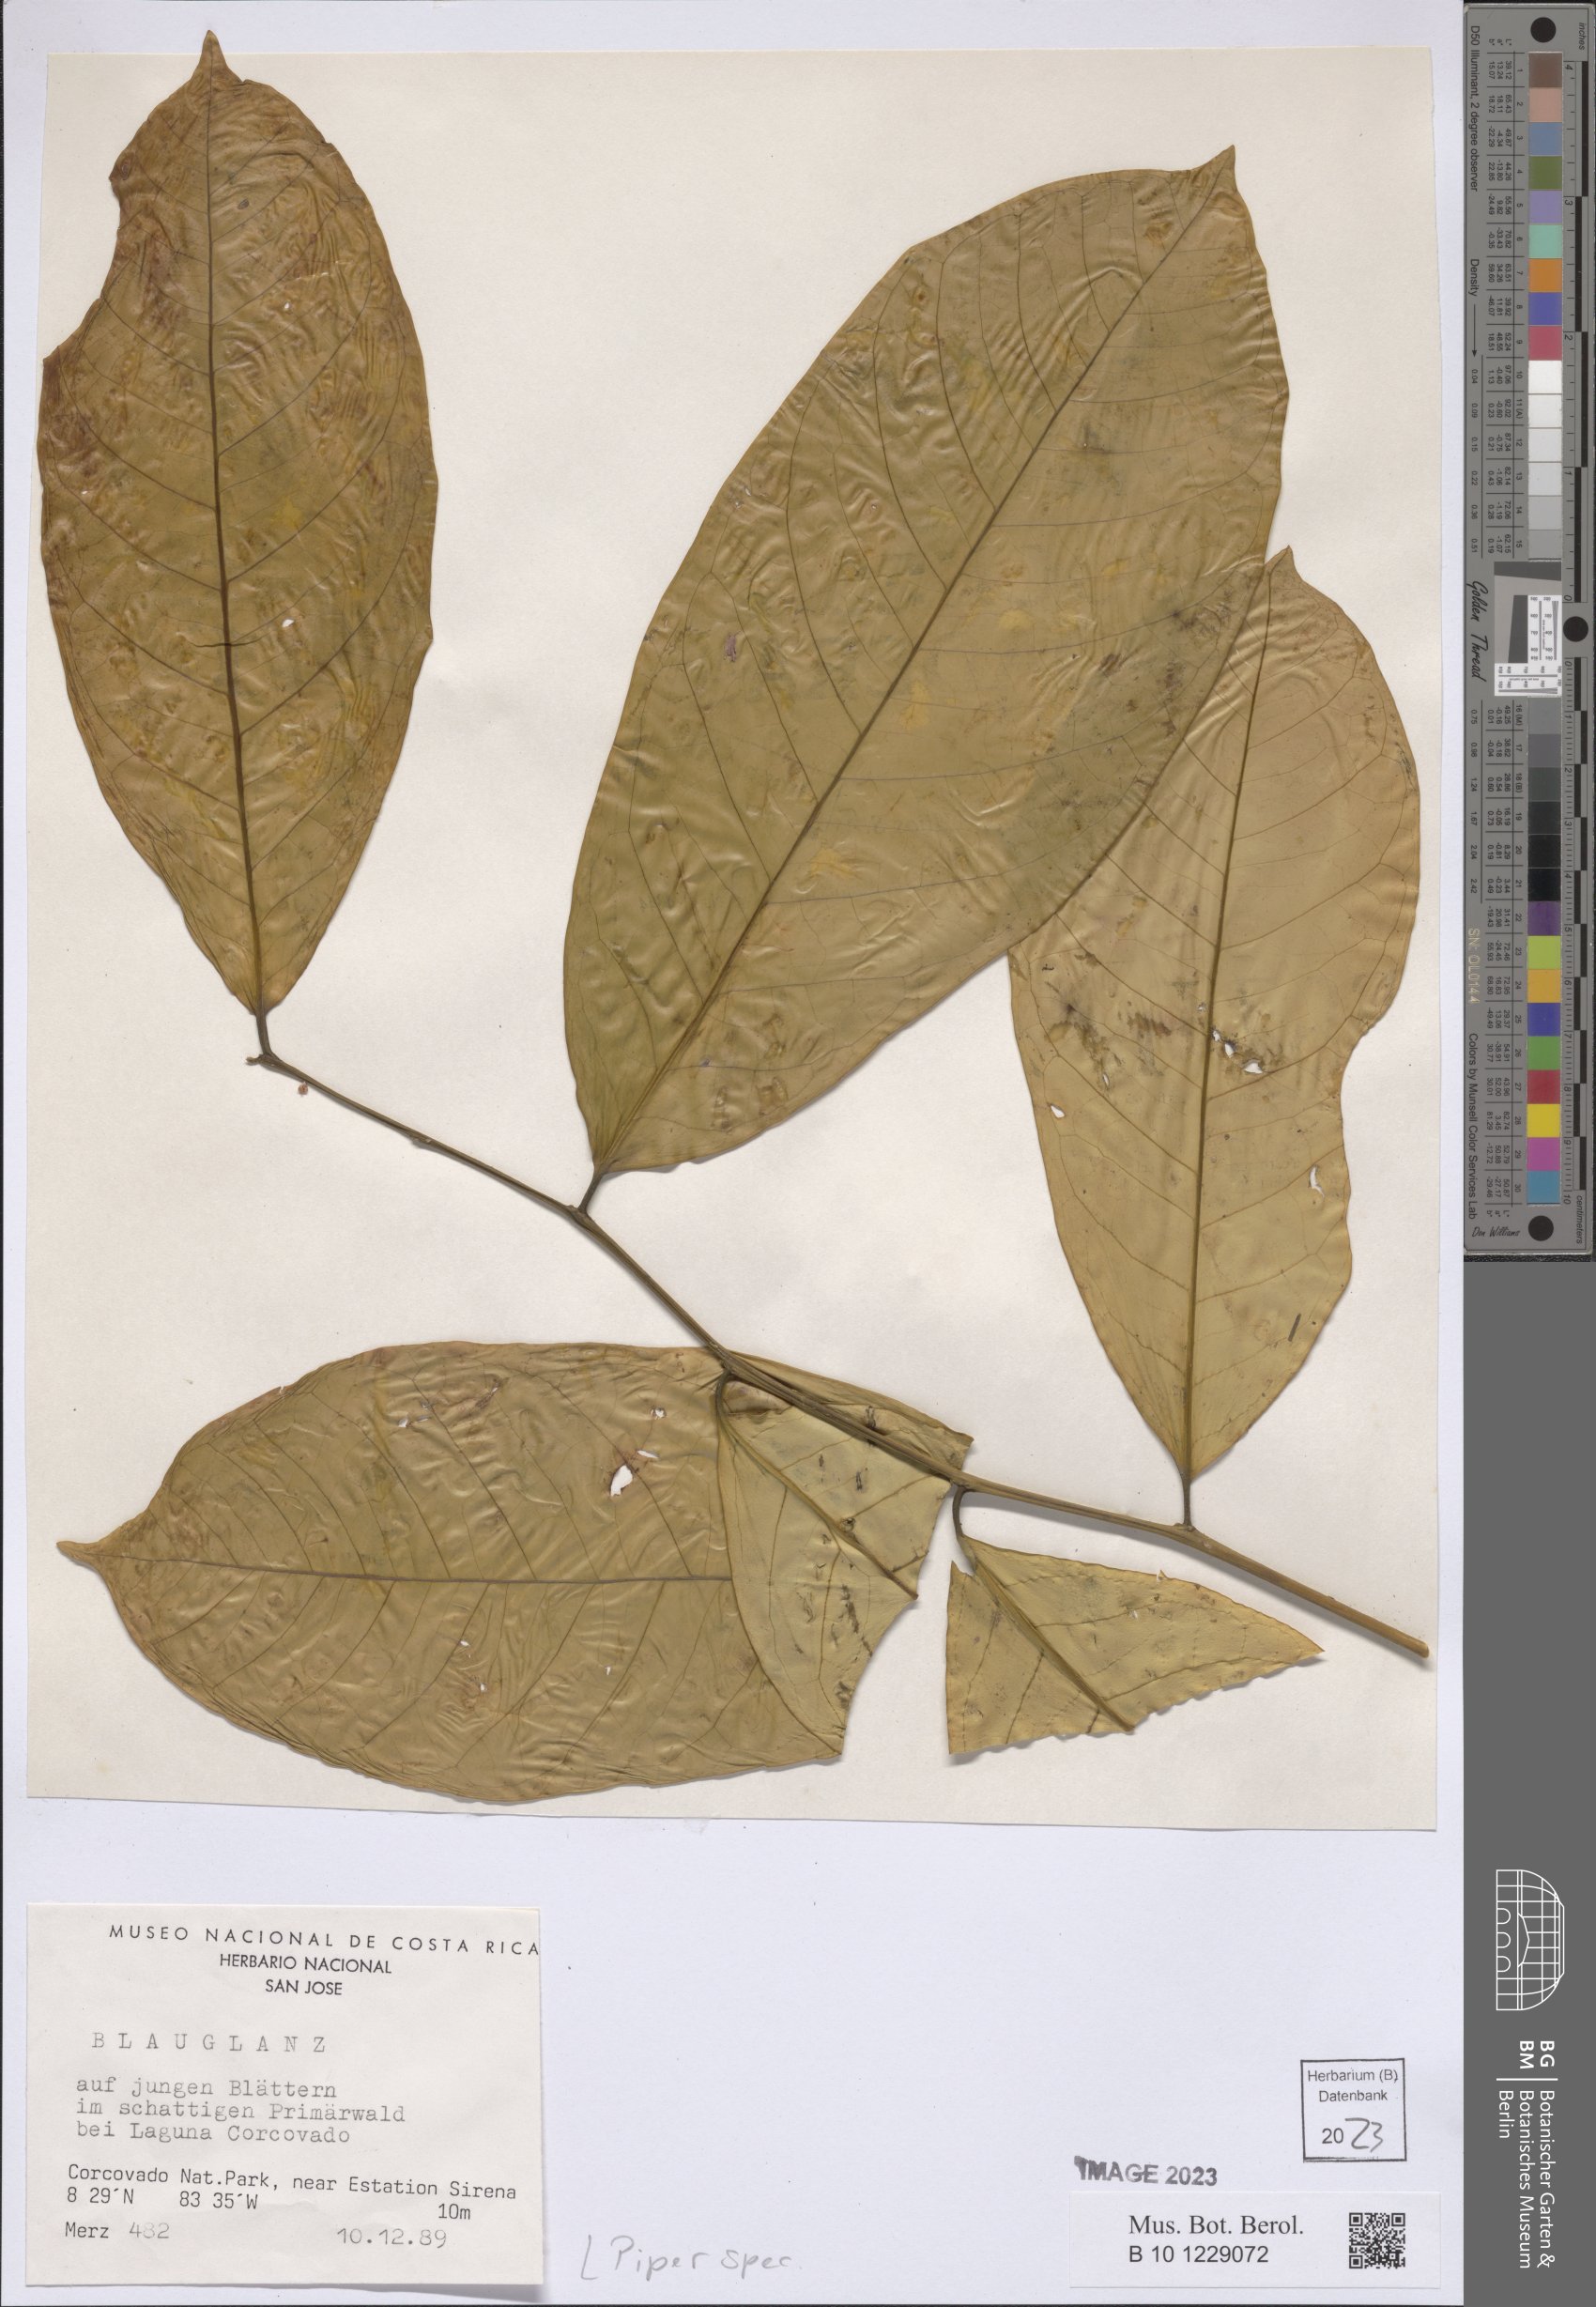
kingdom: Plantae
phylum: Tracheophyta
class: Magnoliopsida
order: Piperales
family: Piperaceae
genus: Piper
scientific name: Piper
